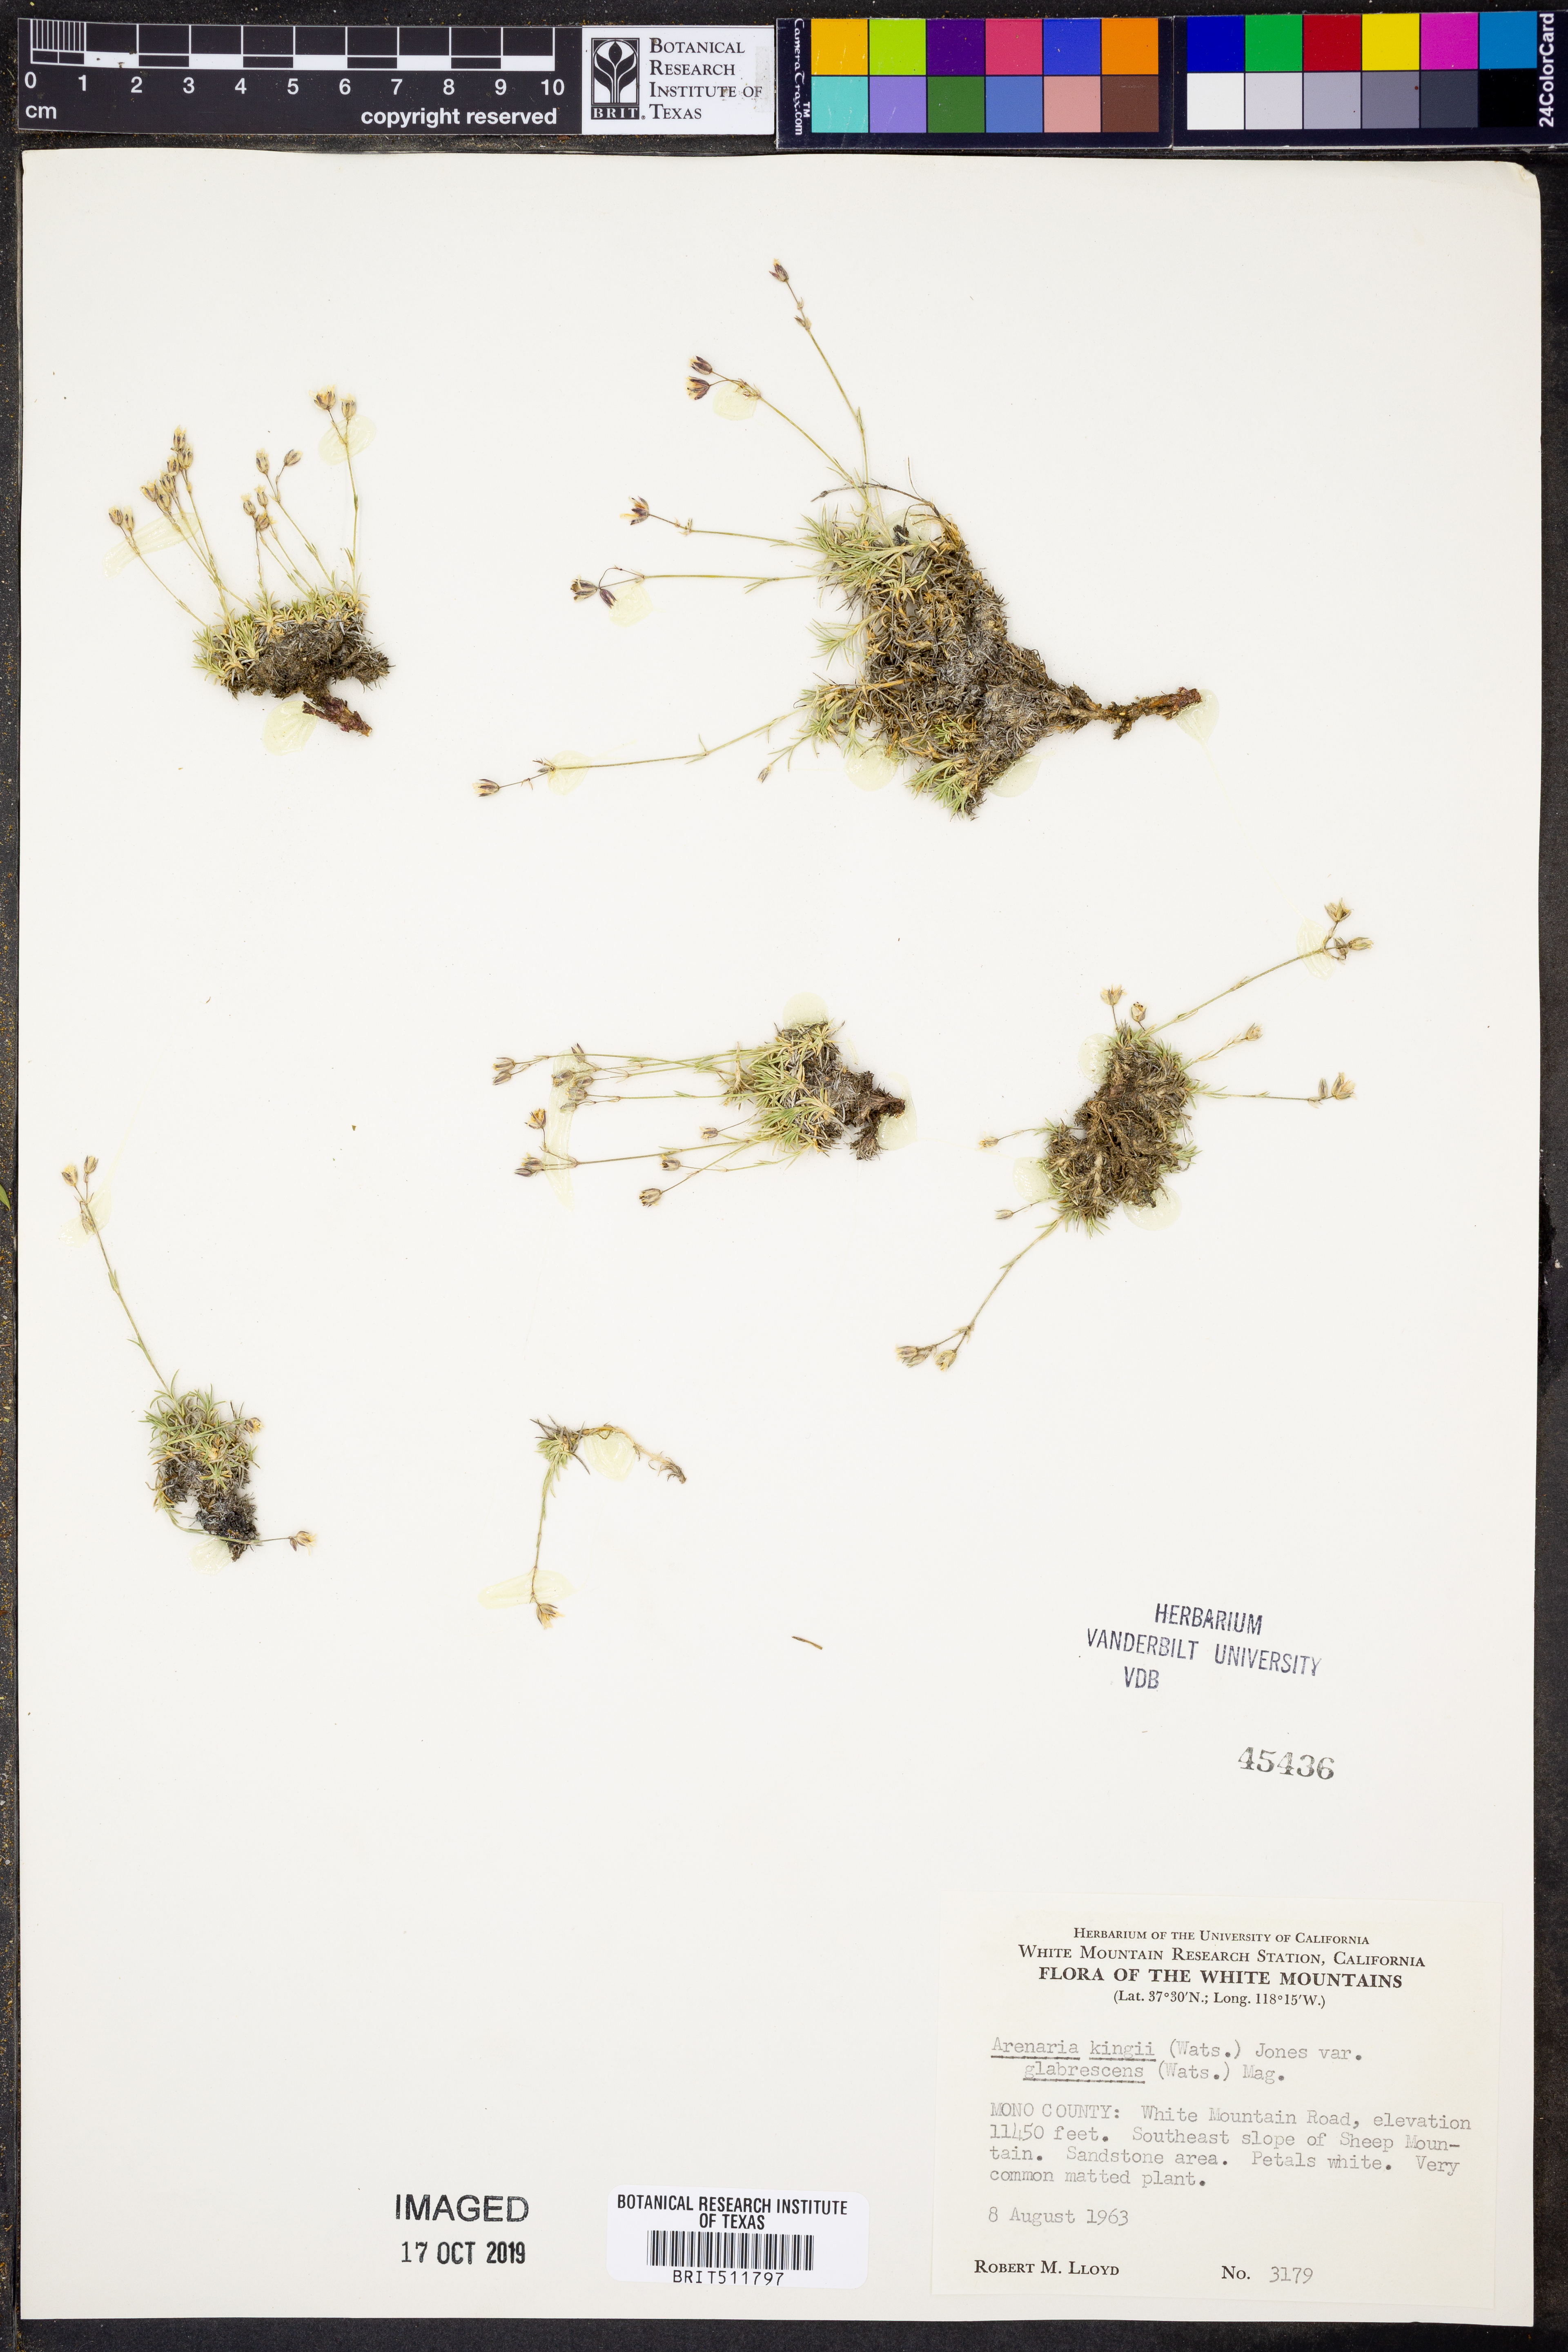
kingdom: Plantae
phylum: Tracheophyta
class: Magnoliopsida
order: Caryophyllales
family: Caryophyllaceae
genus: Eremogone
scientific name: Eremogone kingii
